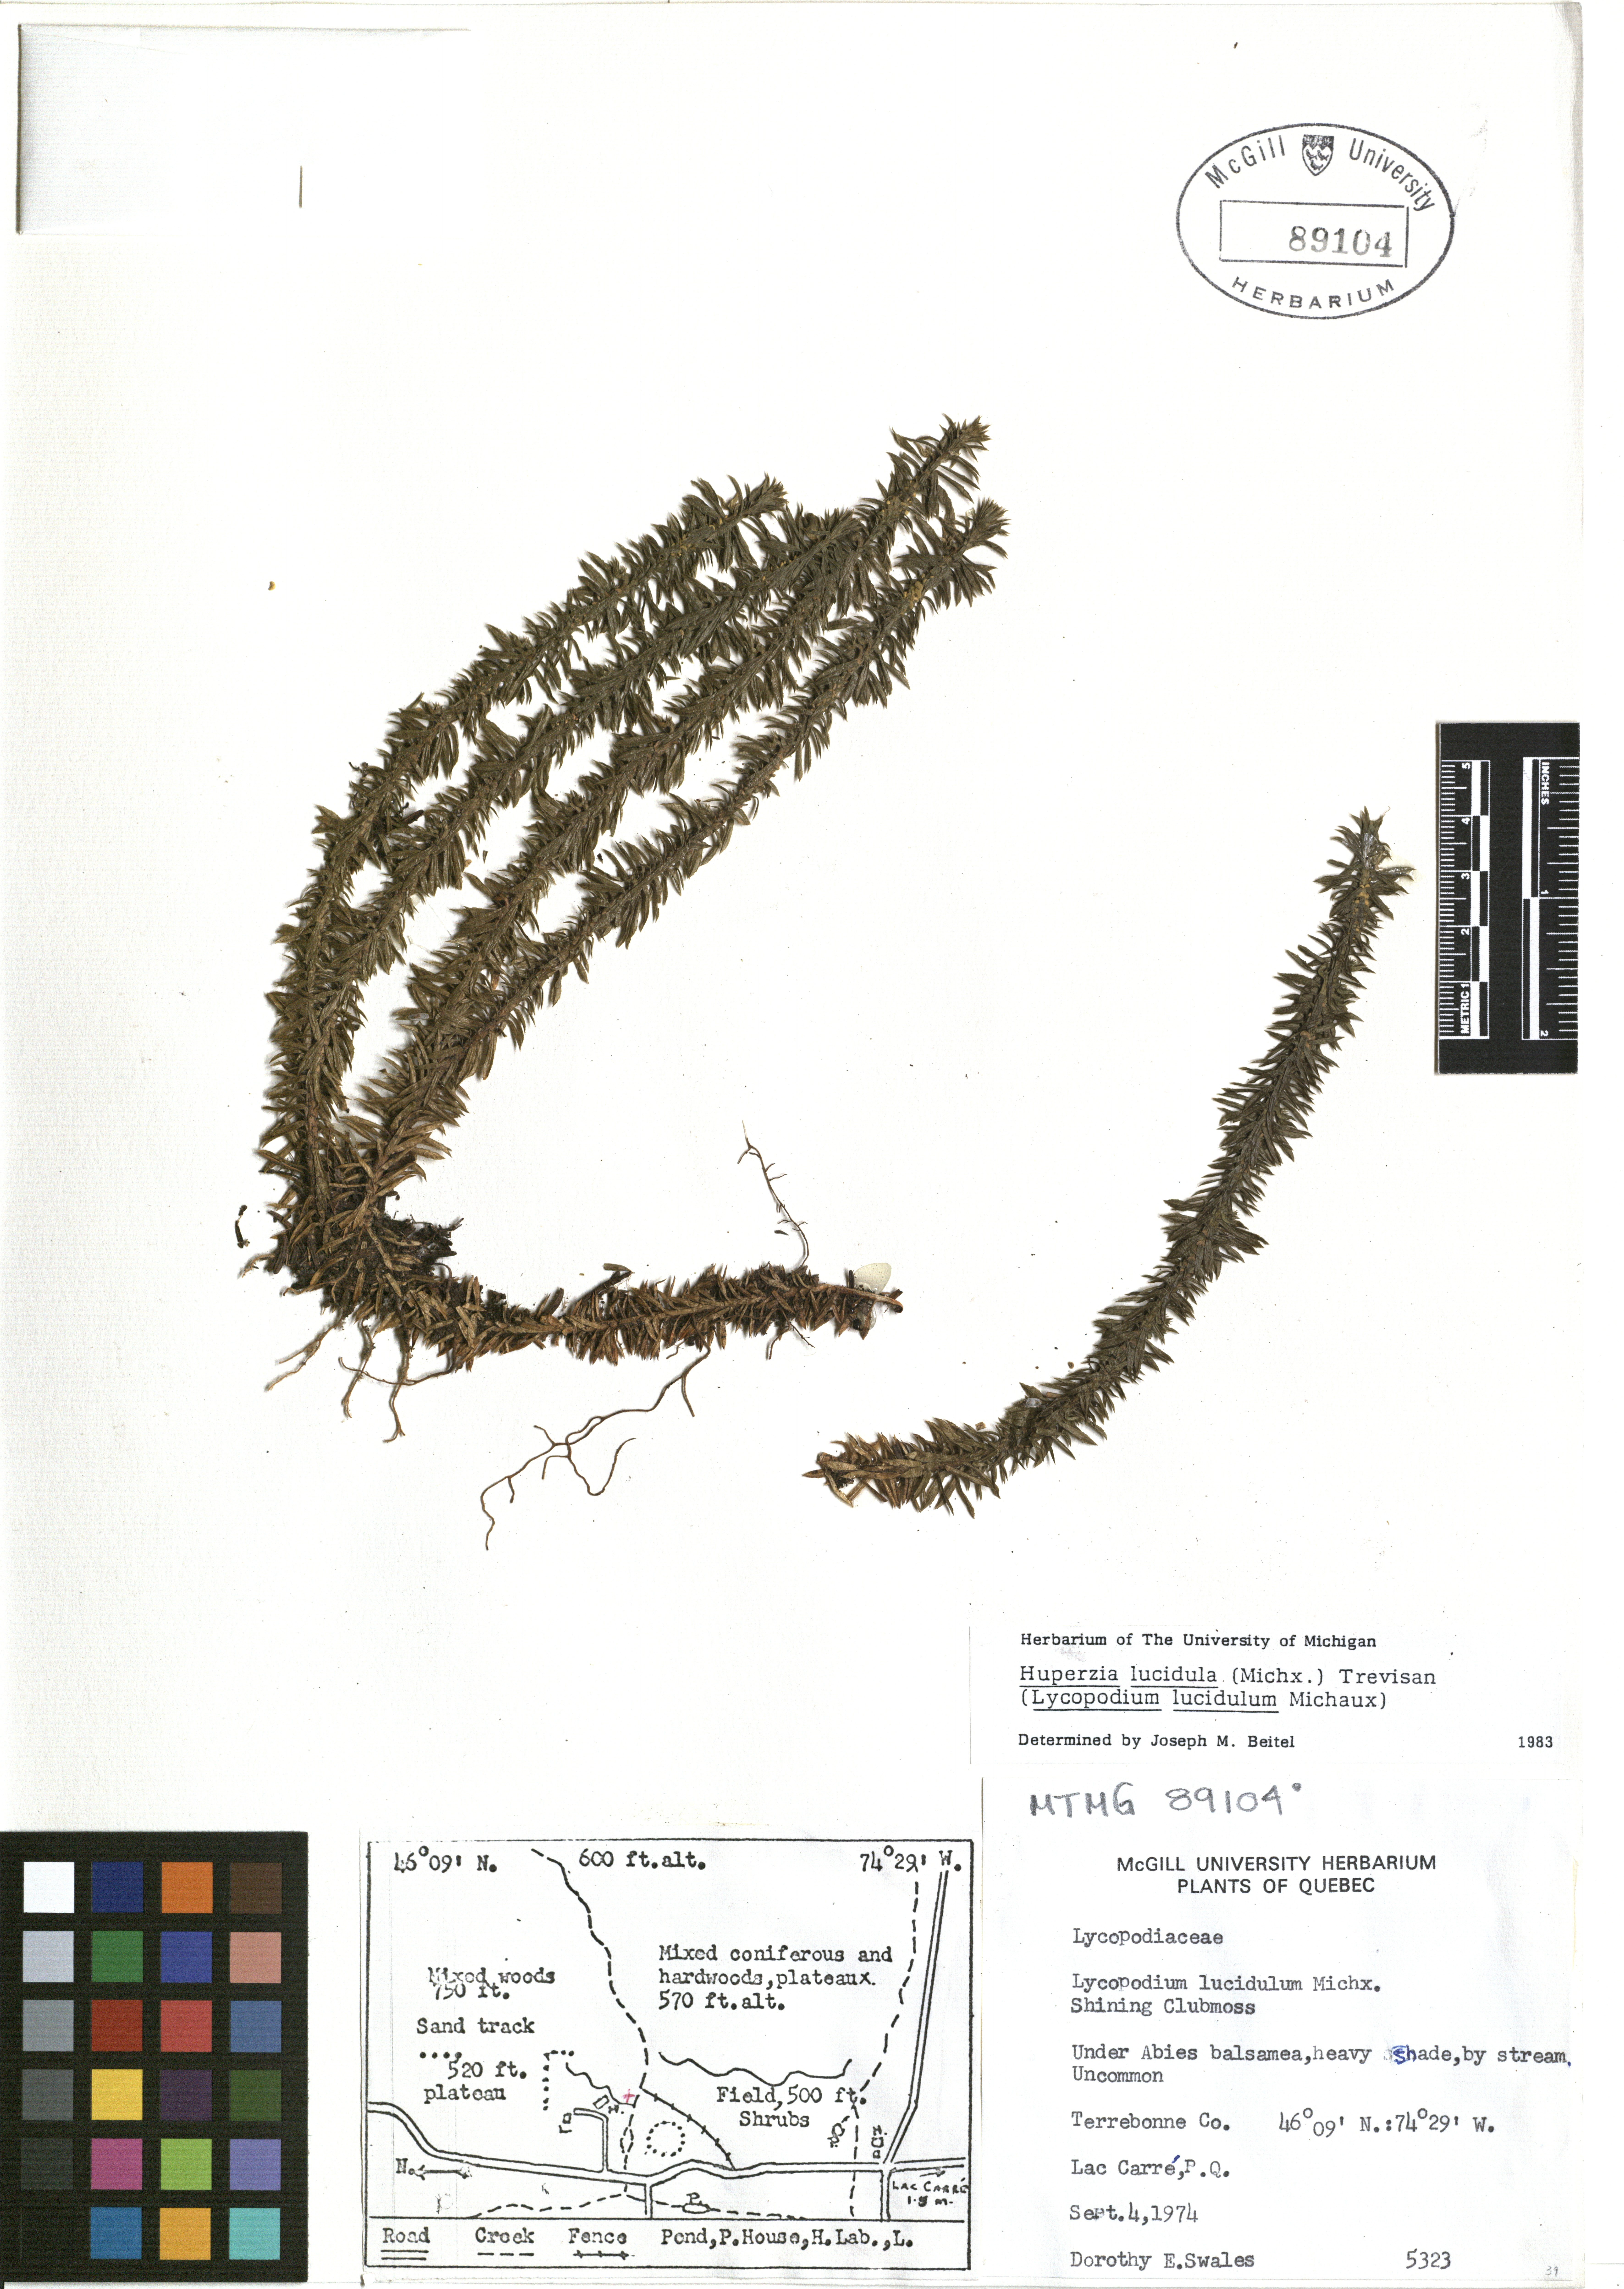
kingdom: Plantae
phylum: Tracheophyta
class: Lycopodiopsida
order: Lycopodiales
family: Lycopodiaceae
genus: Huperzia
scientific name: Huperzia lucidula
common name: Shining clubmoss
